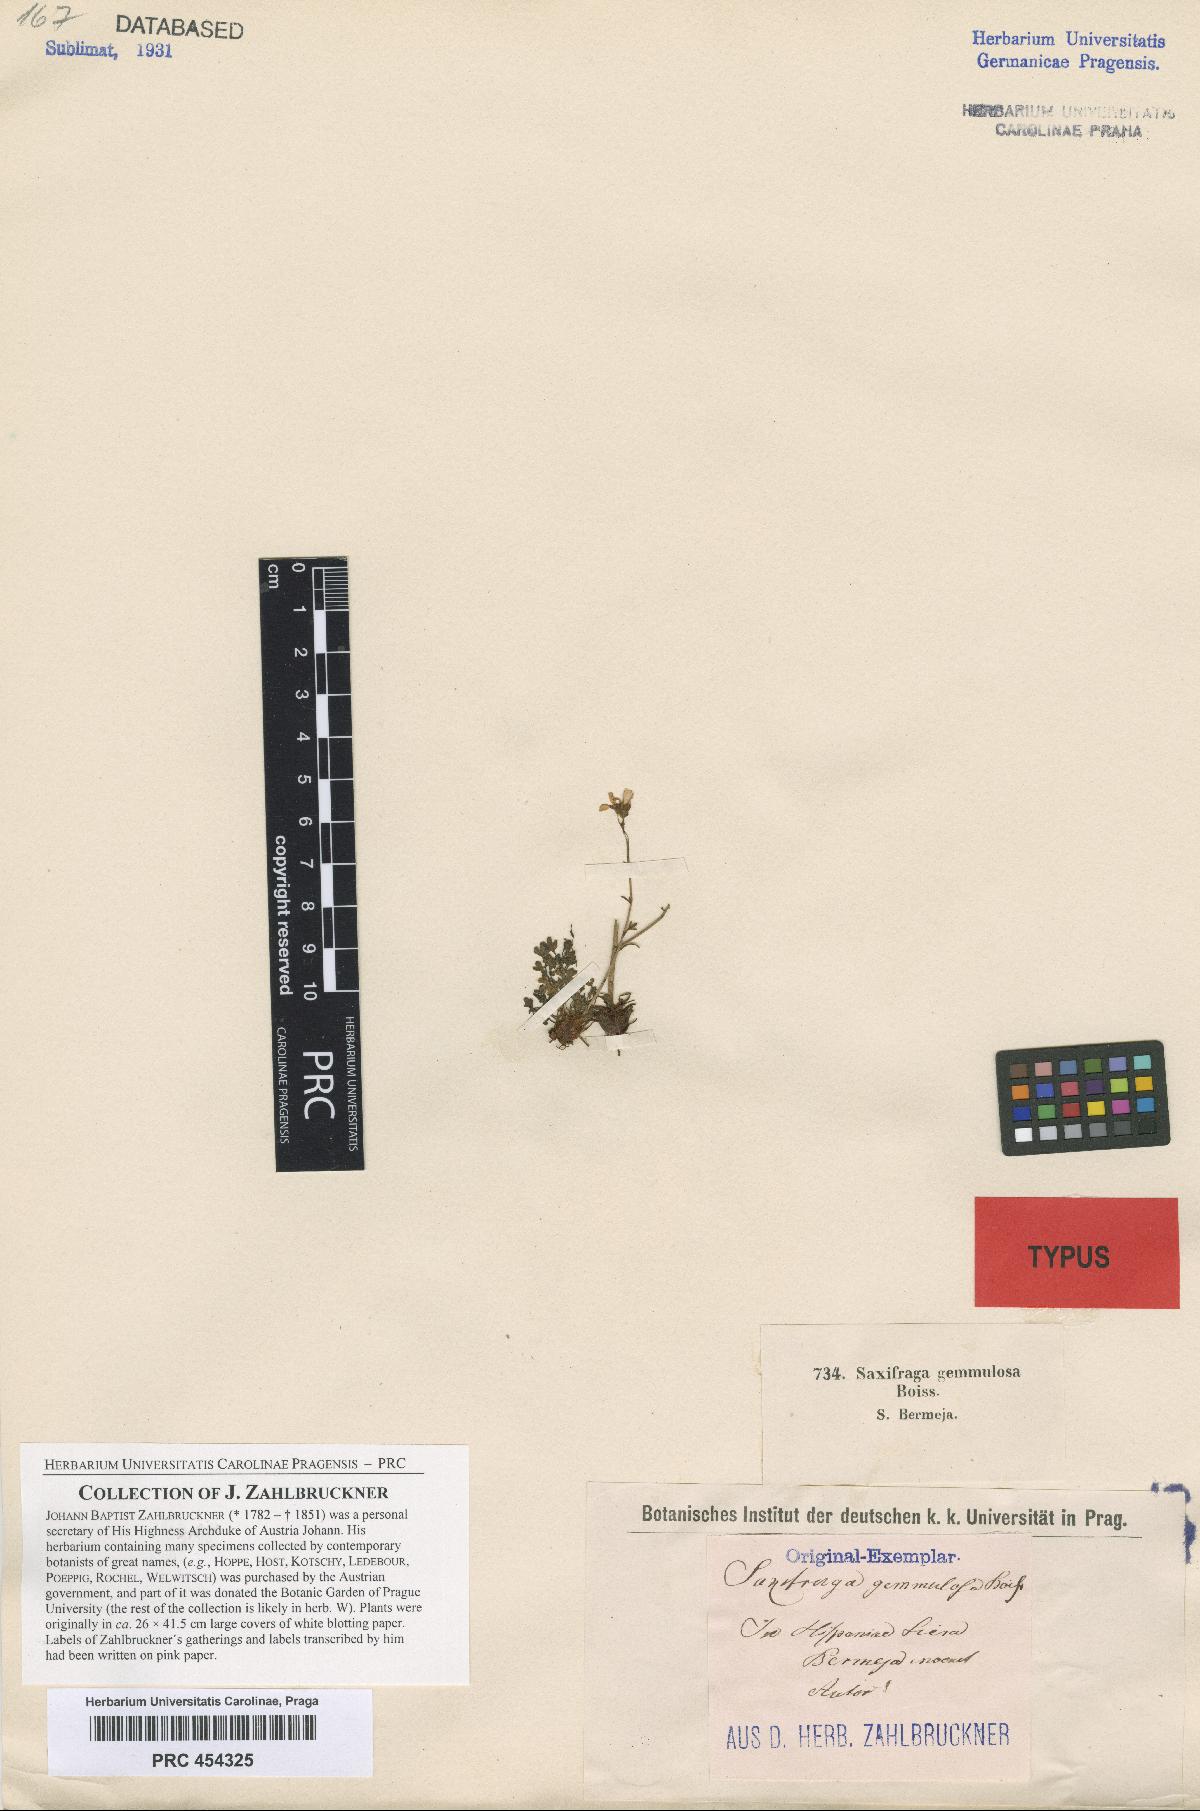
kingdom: Plantae
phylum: Tracheophyta
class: Magnoliopsida
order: Saxifragales
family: Saxifragaceae
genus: Saxifraga
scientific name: Saxifraga gemmulosa
